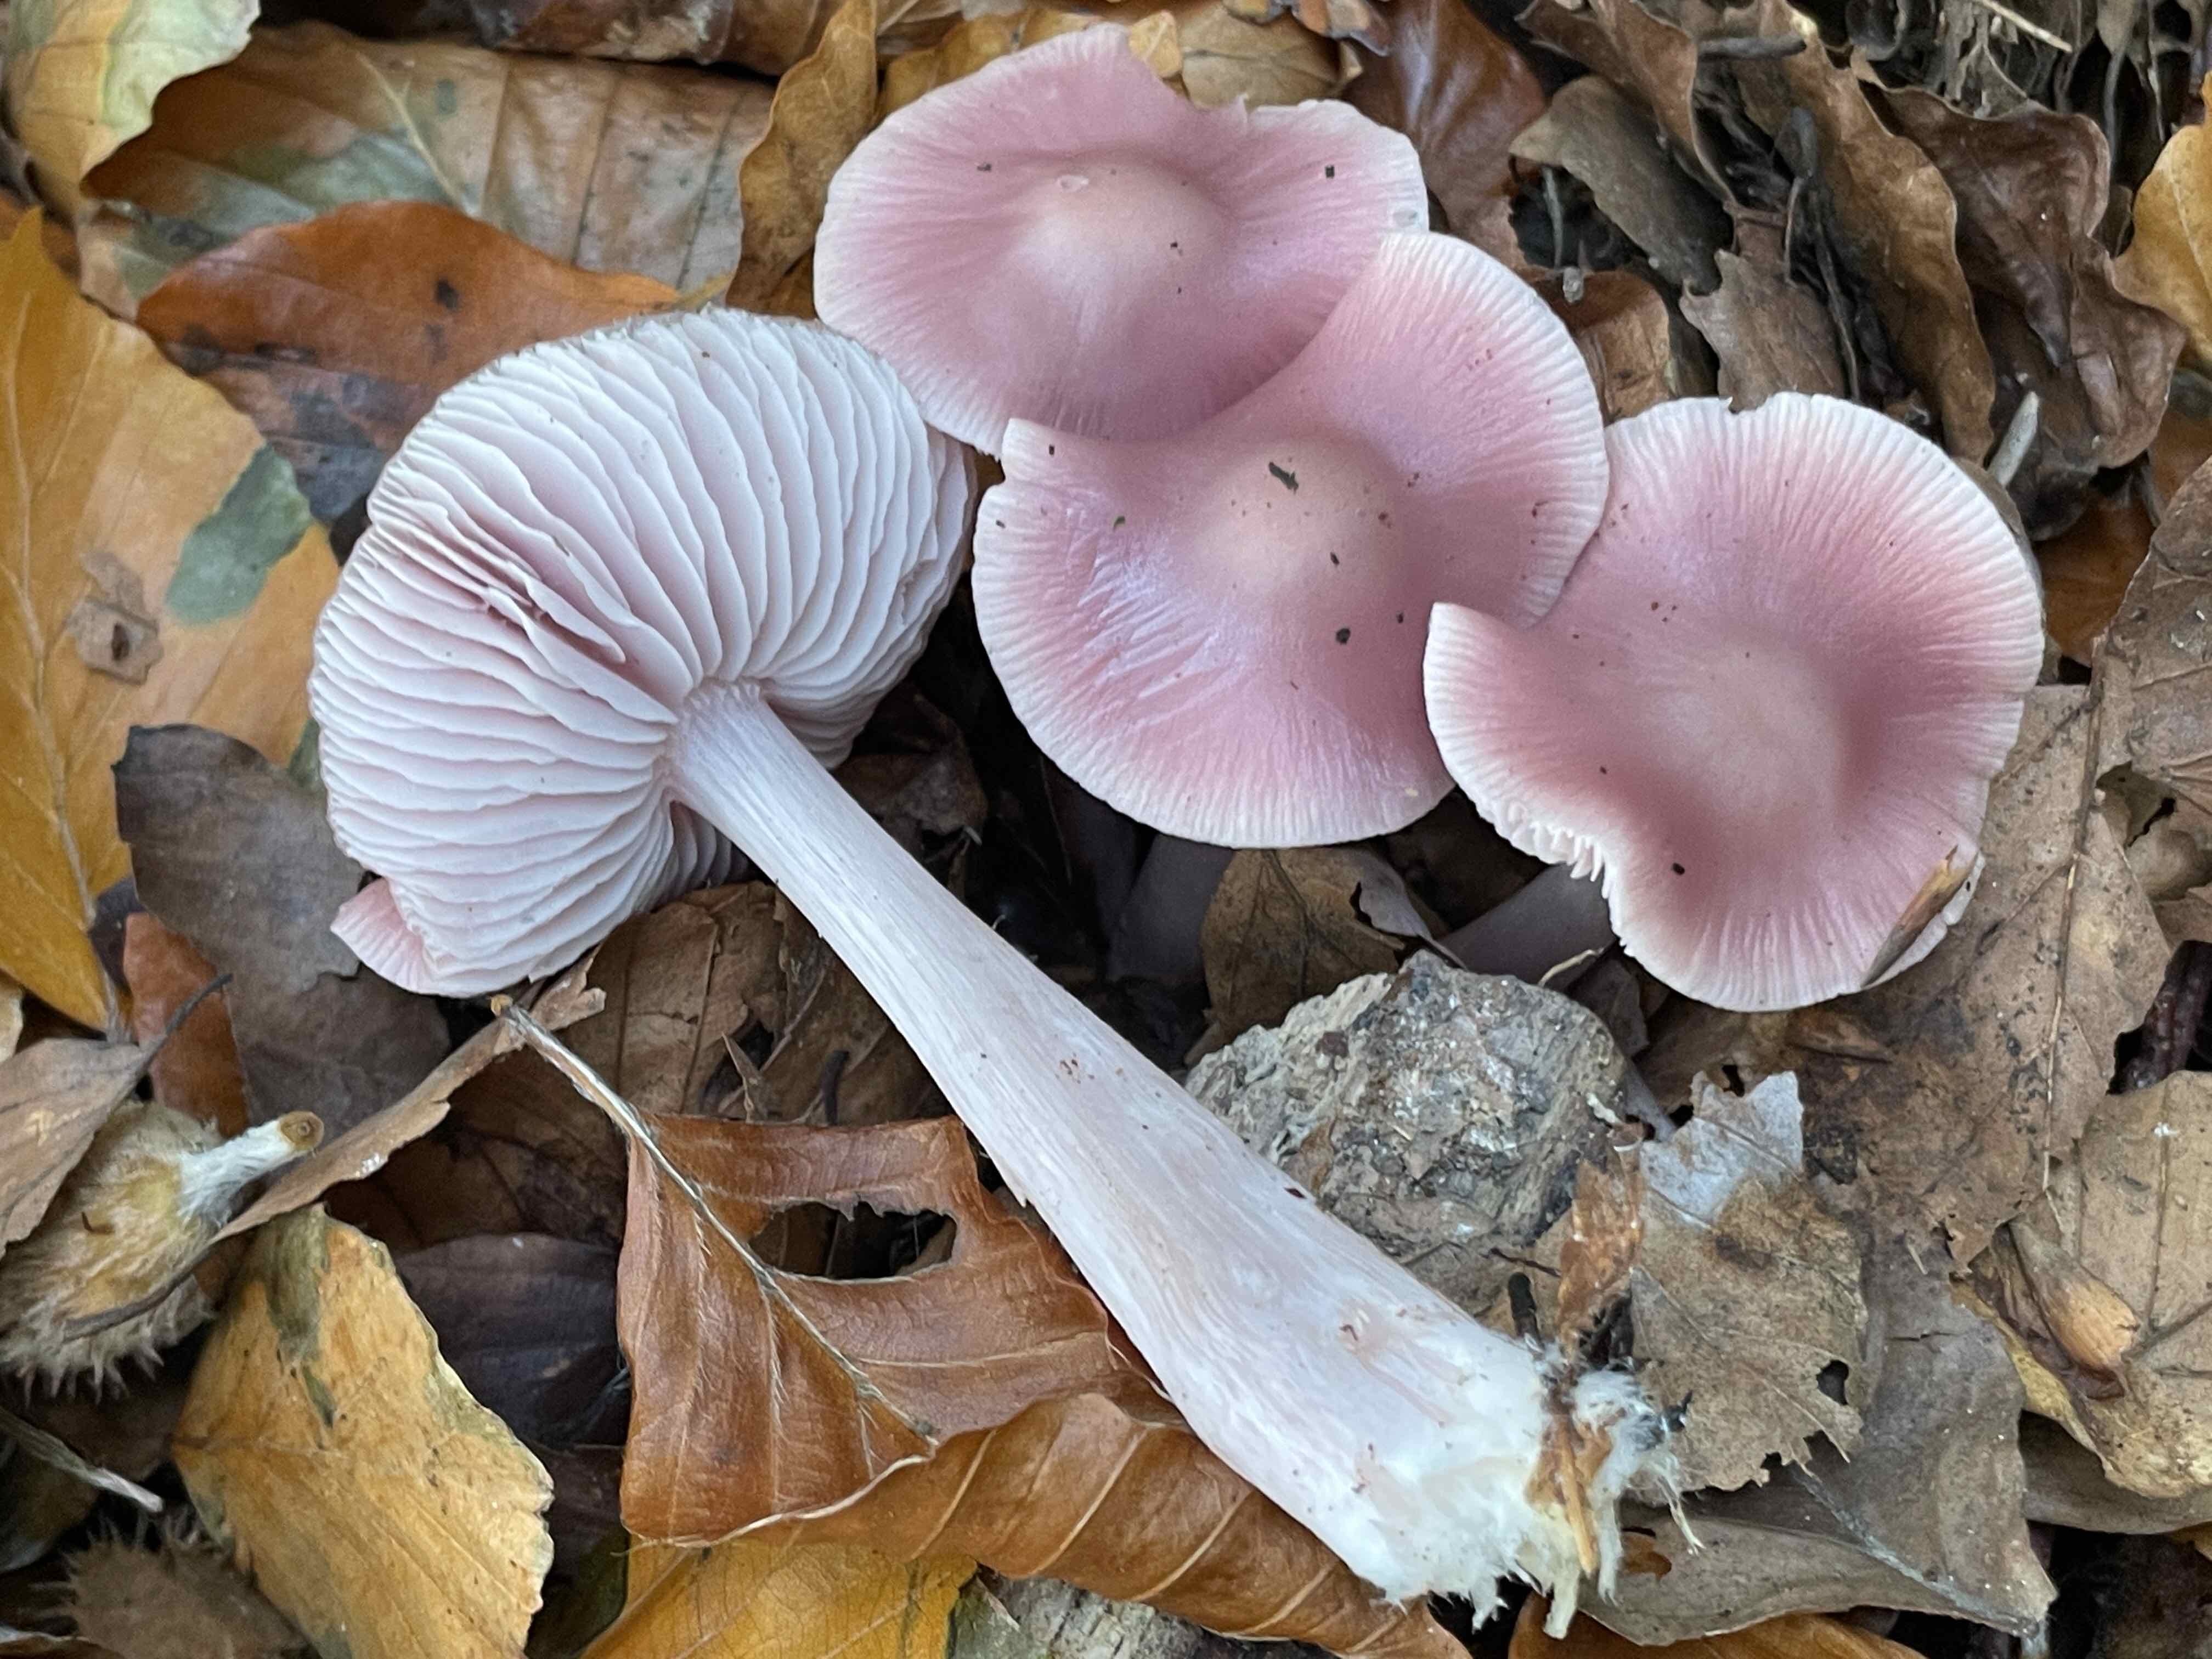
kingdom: Fungi
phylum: Basidiomycota
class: Agaricomycetes
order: Agaricales
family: Mycenaceae
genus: Mycena
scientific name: Mycena rosea
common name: rosa huesvamp
